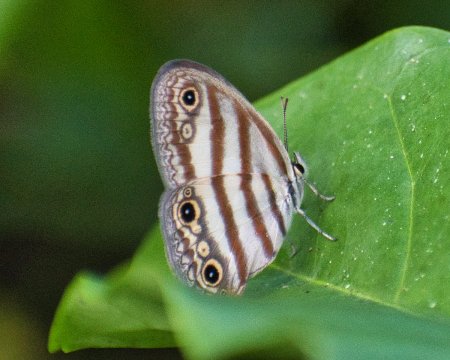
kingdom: Animalia
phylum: Arthropoda
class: Insecta
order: Lepidoptera
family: Nymphalidae
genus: Euptychia
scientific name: Euptychia mollina
